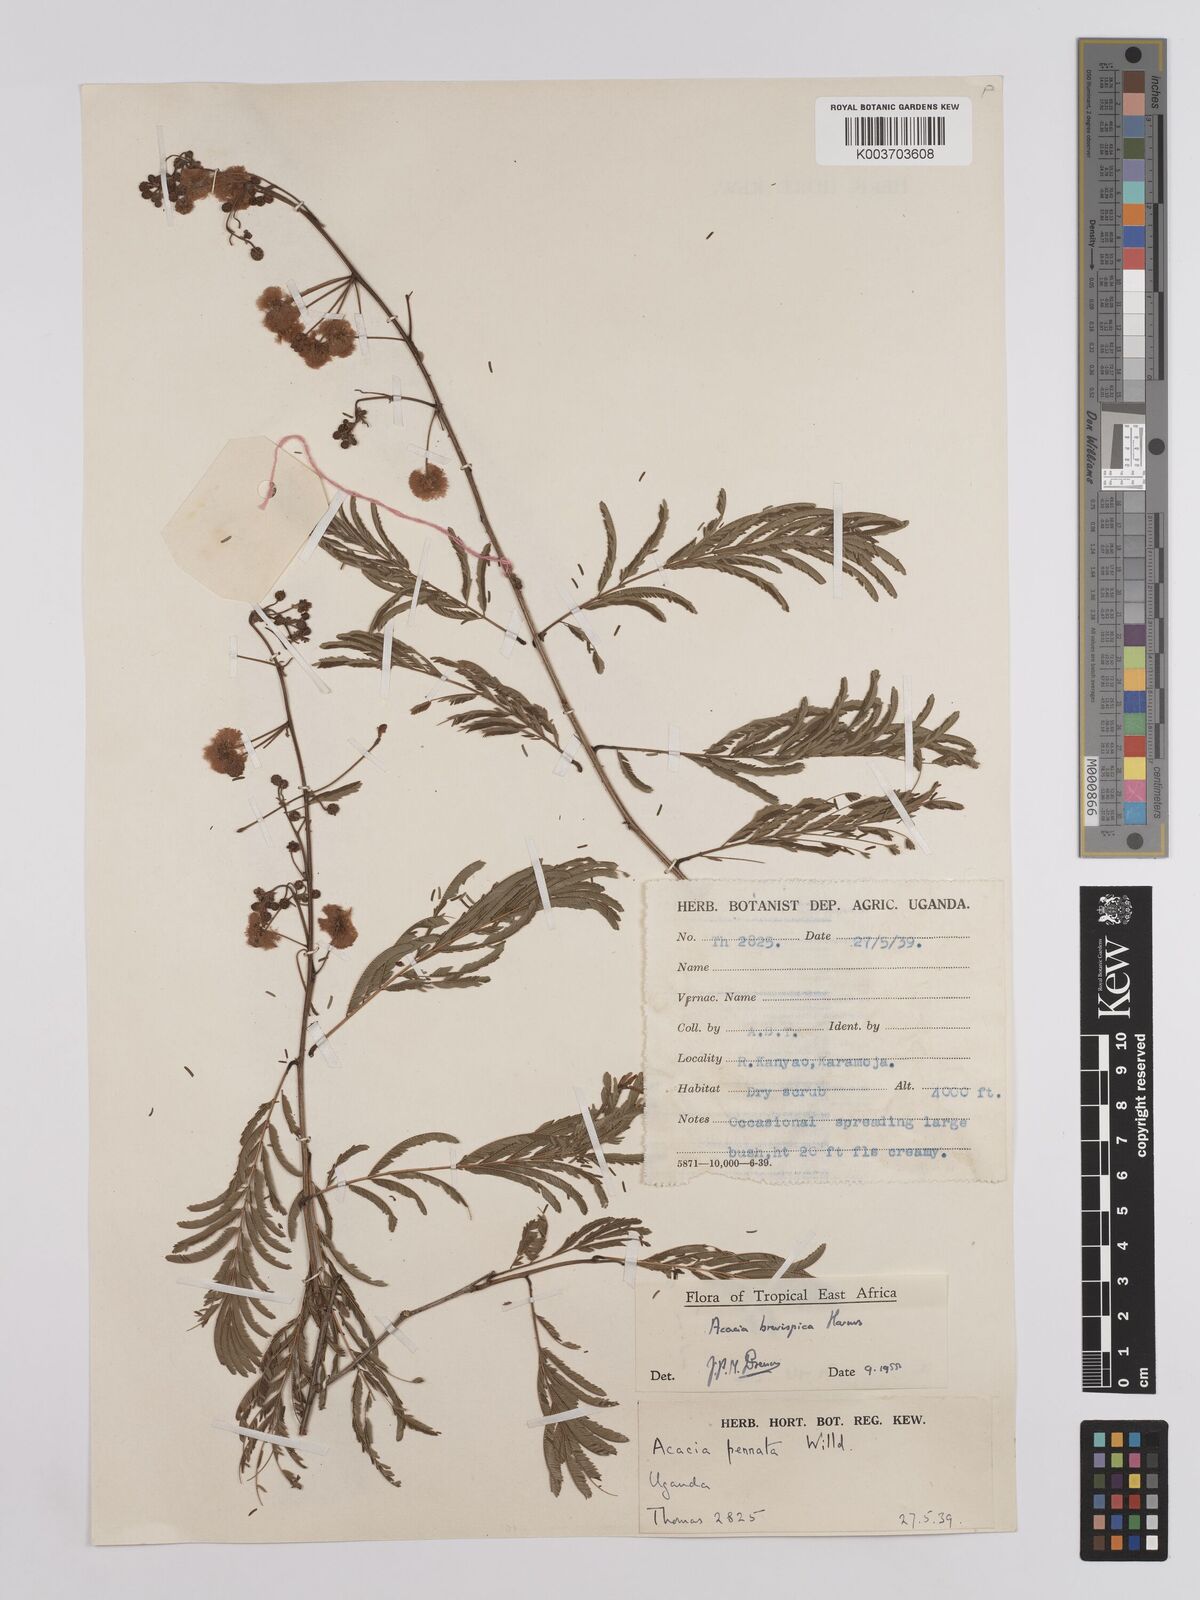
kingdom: Plantae
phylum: Tracheophyta
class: Magnoliopsida
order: Fabales
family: Fabaceae
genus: Senegalia
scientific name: Senegalia brevispica
